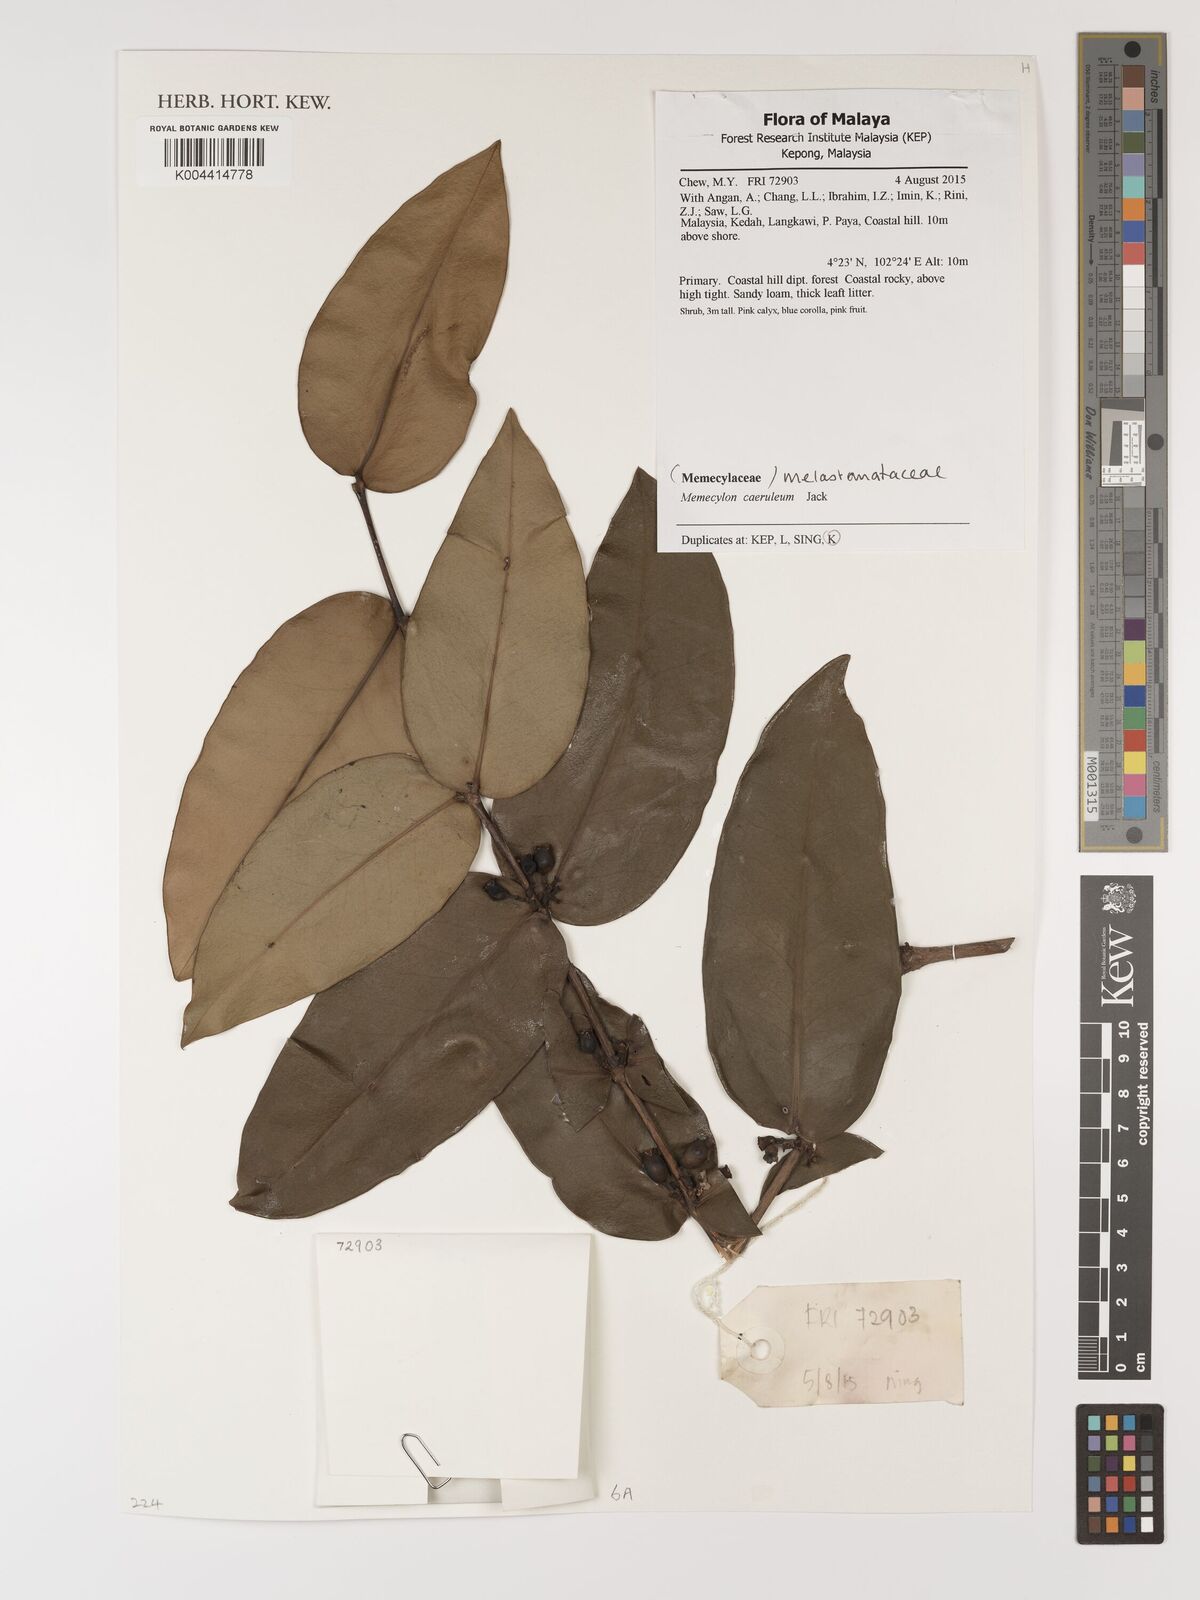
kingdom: Plantae
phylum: Tracheophyta
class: Magnoliopsida
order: Myrtales
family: Melastomataceae
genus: Memecylon
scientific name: Memecylon
